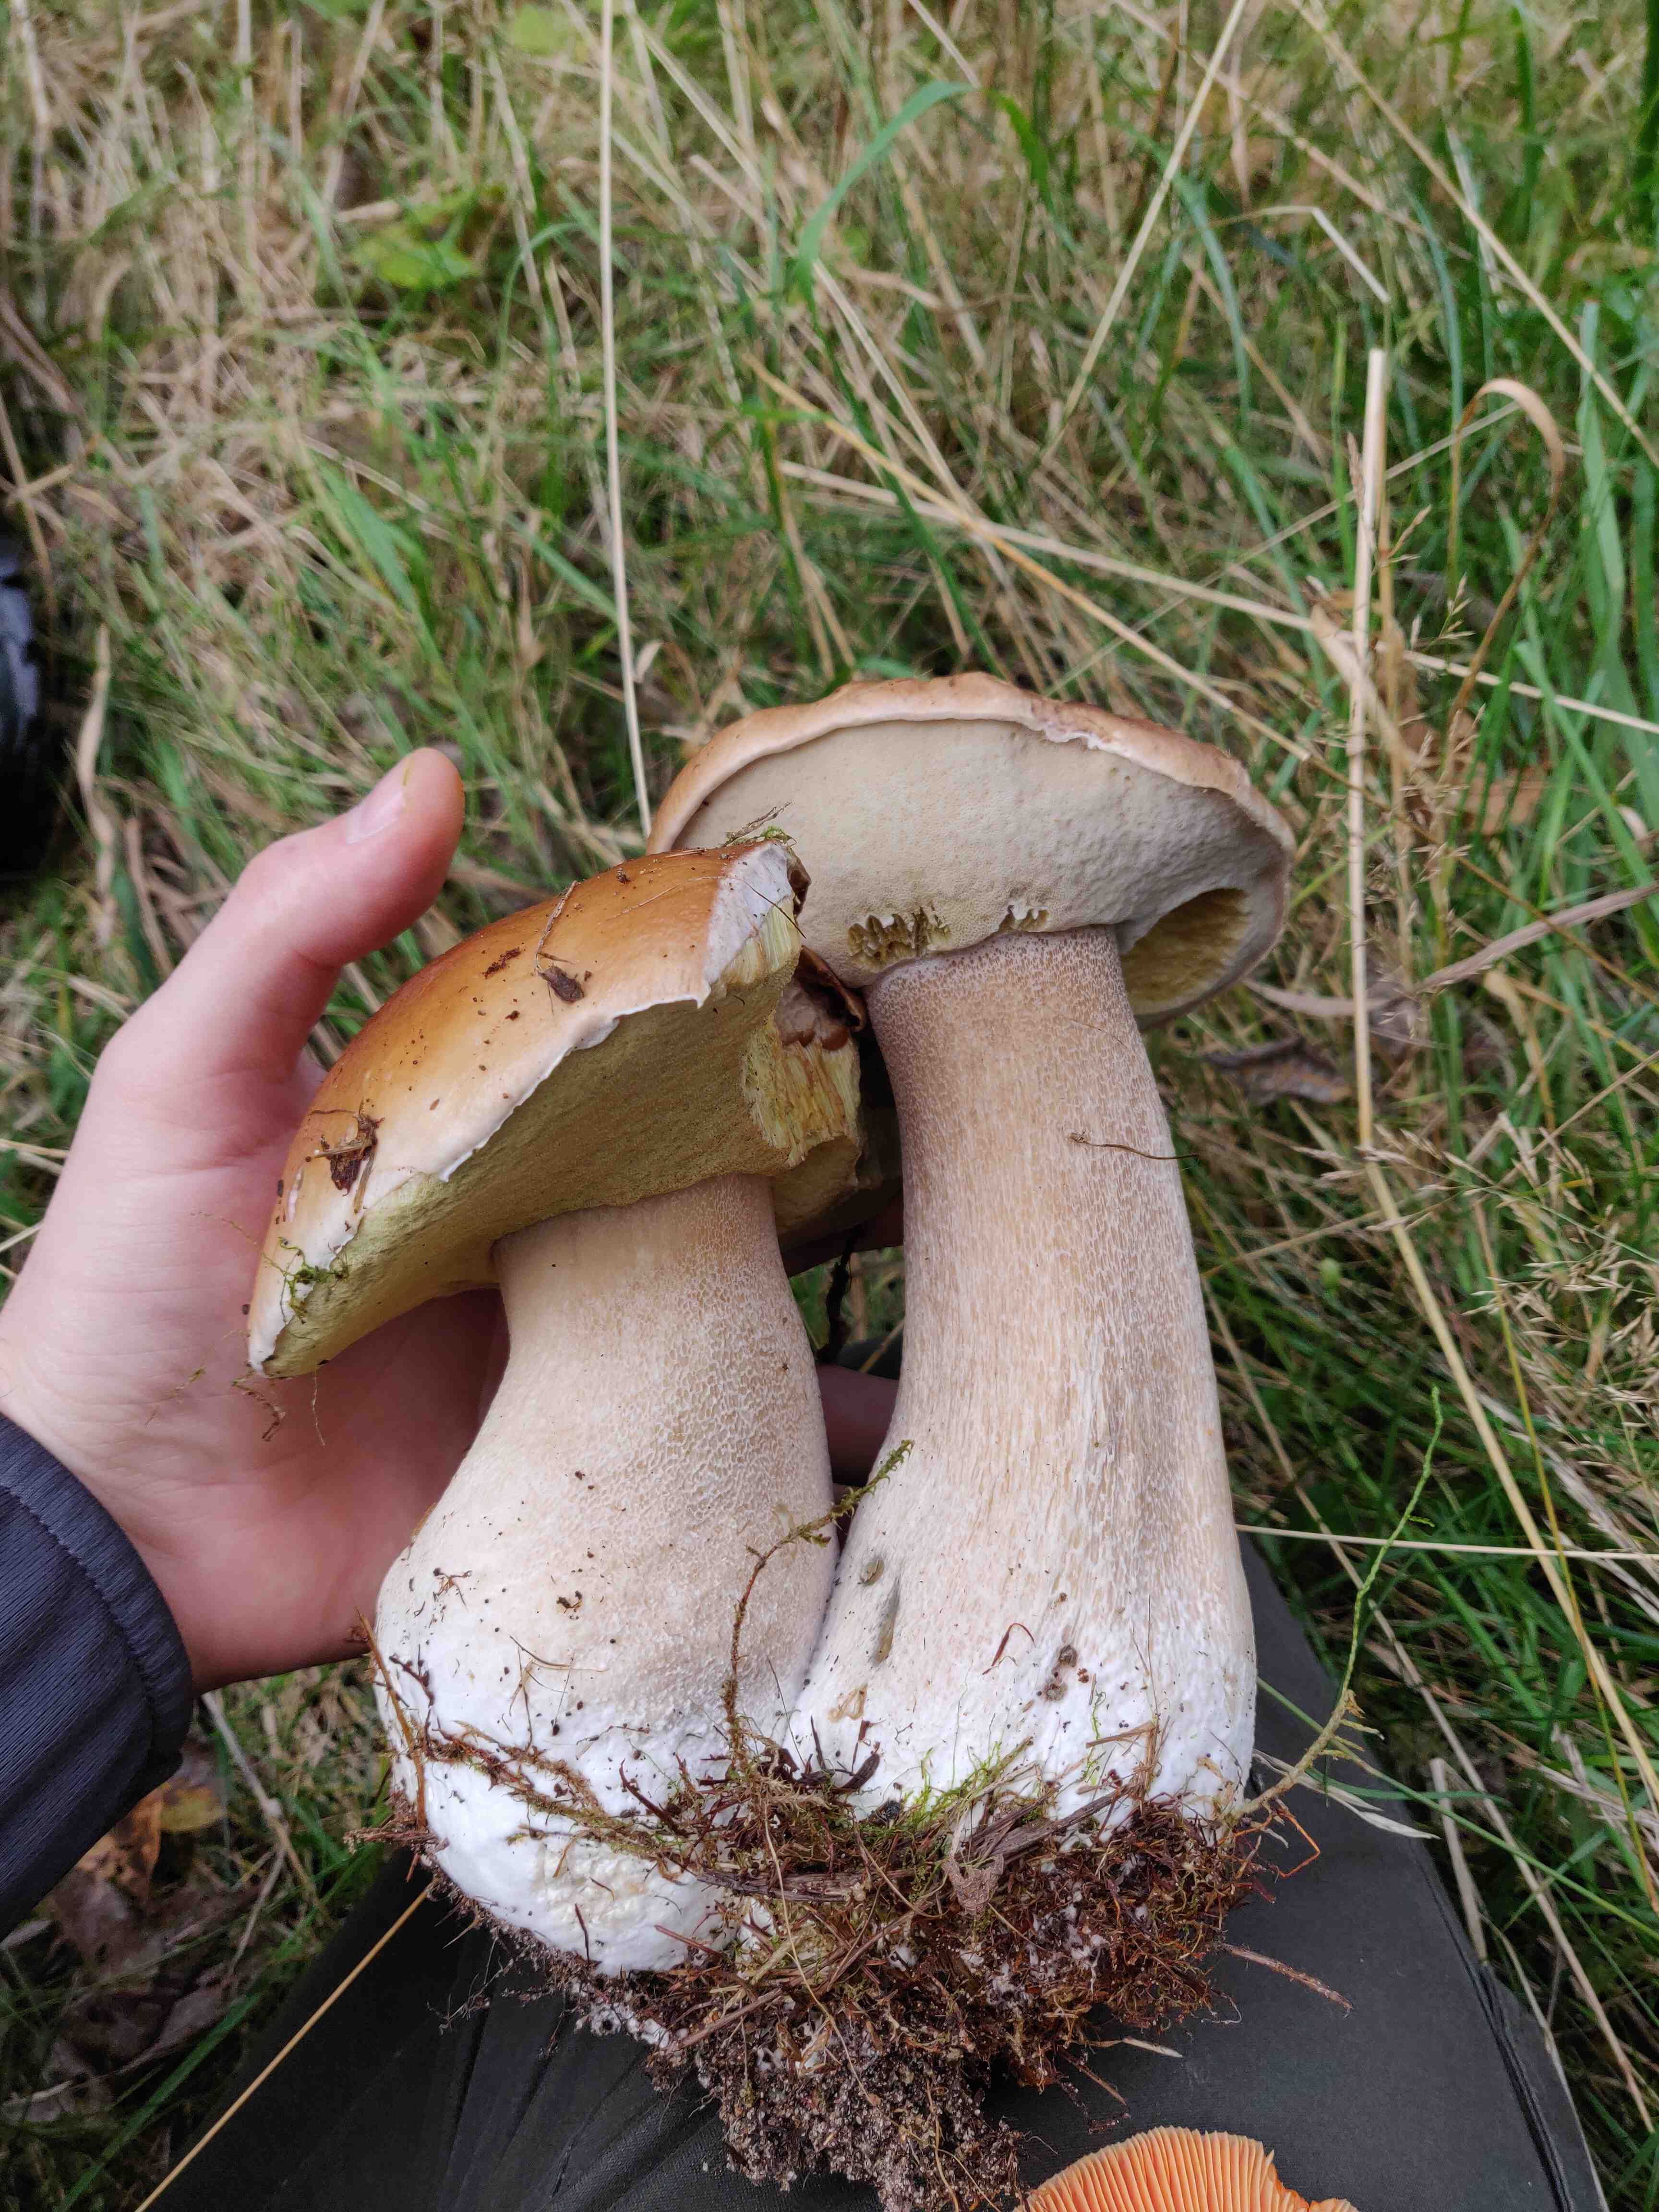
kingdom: Fungi
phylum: Basidiomycota
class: Agaricomycetes
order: Boletales
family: Boletaceae
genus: Boletus
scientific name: Boletus edulis
